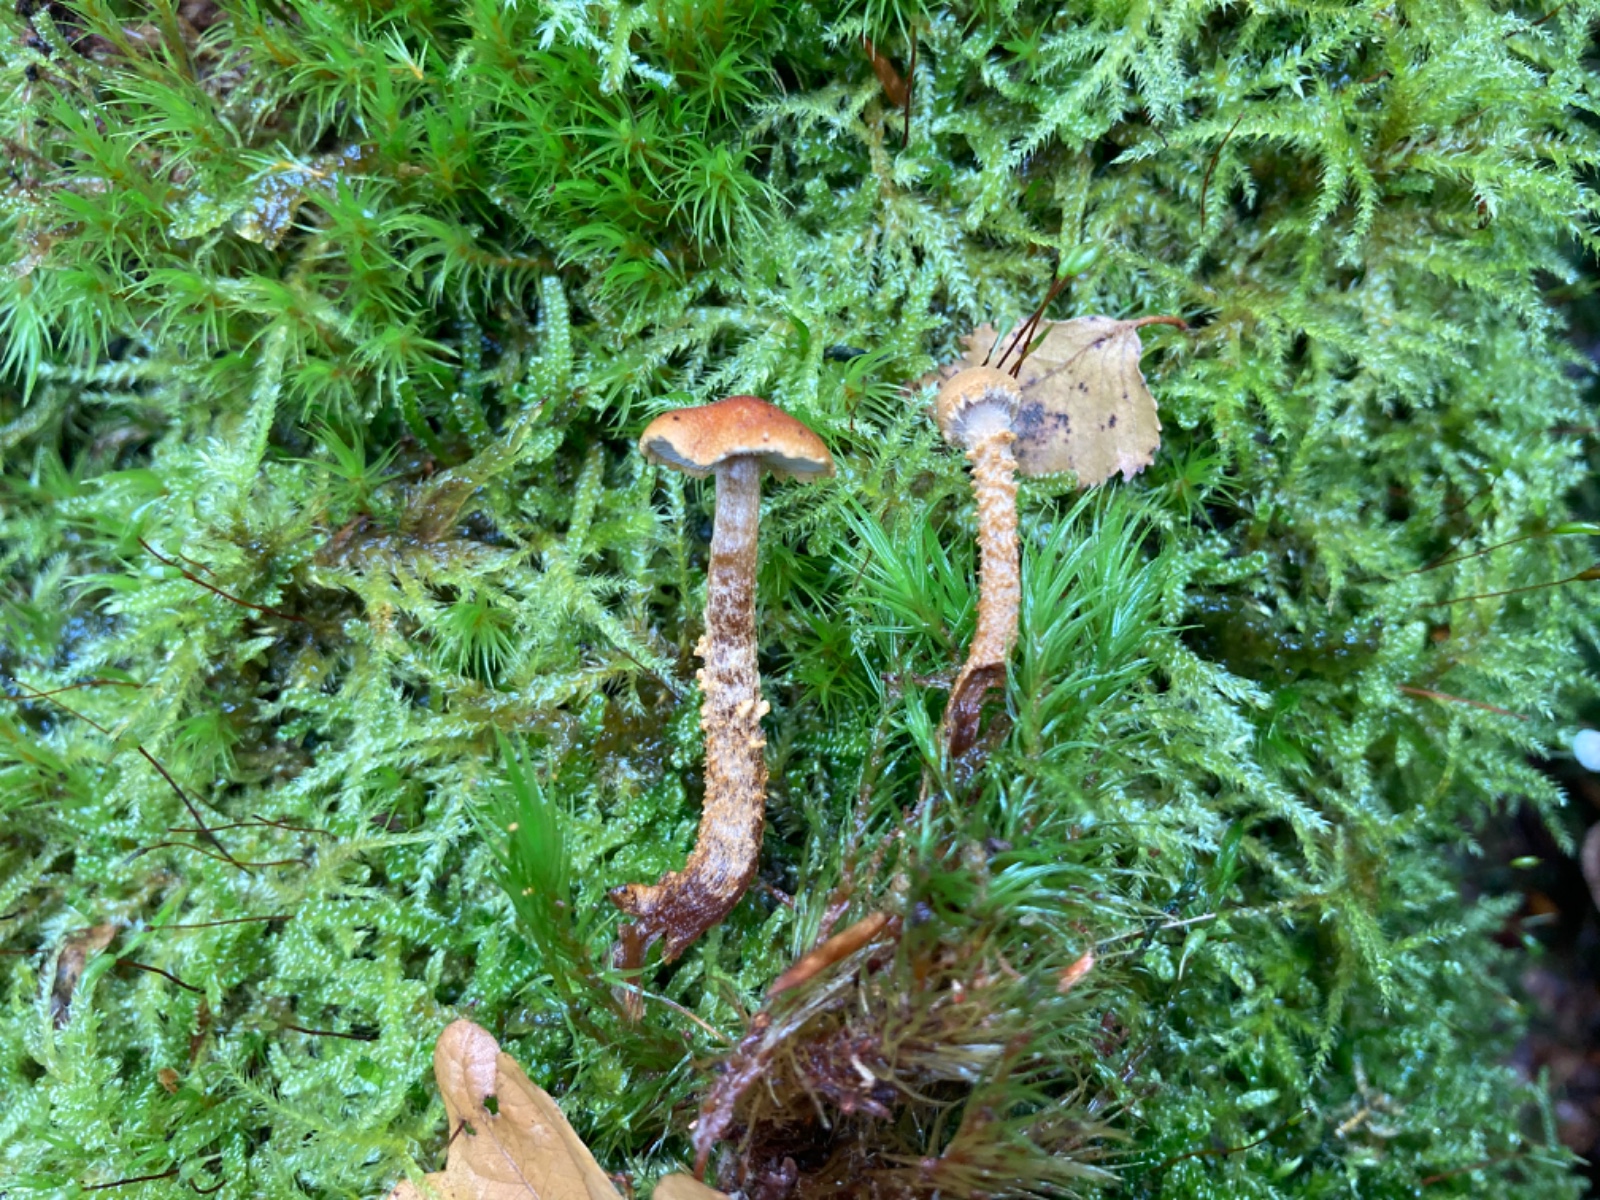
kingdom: Fungi
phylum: Basidiomycota
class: Agaricomycetes
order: Agaricales
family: Tricholomataceae
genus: Cystoderma
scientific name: Cystoderma jasonis
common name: gulkødet grynhat
